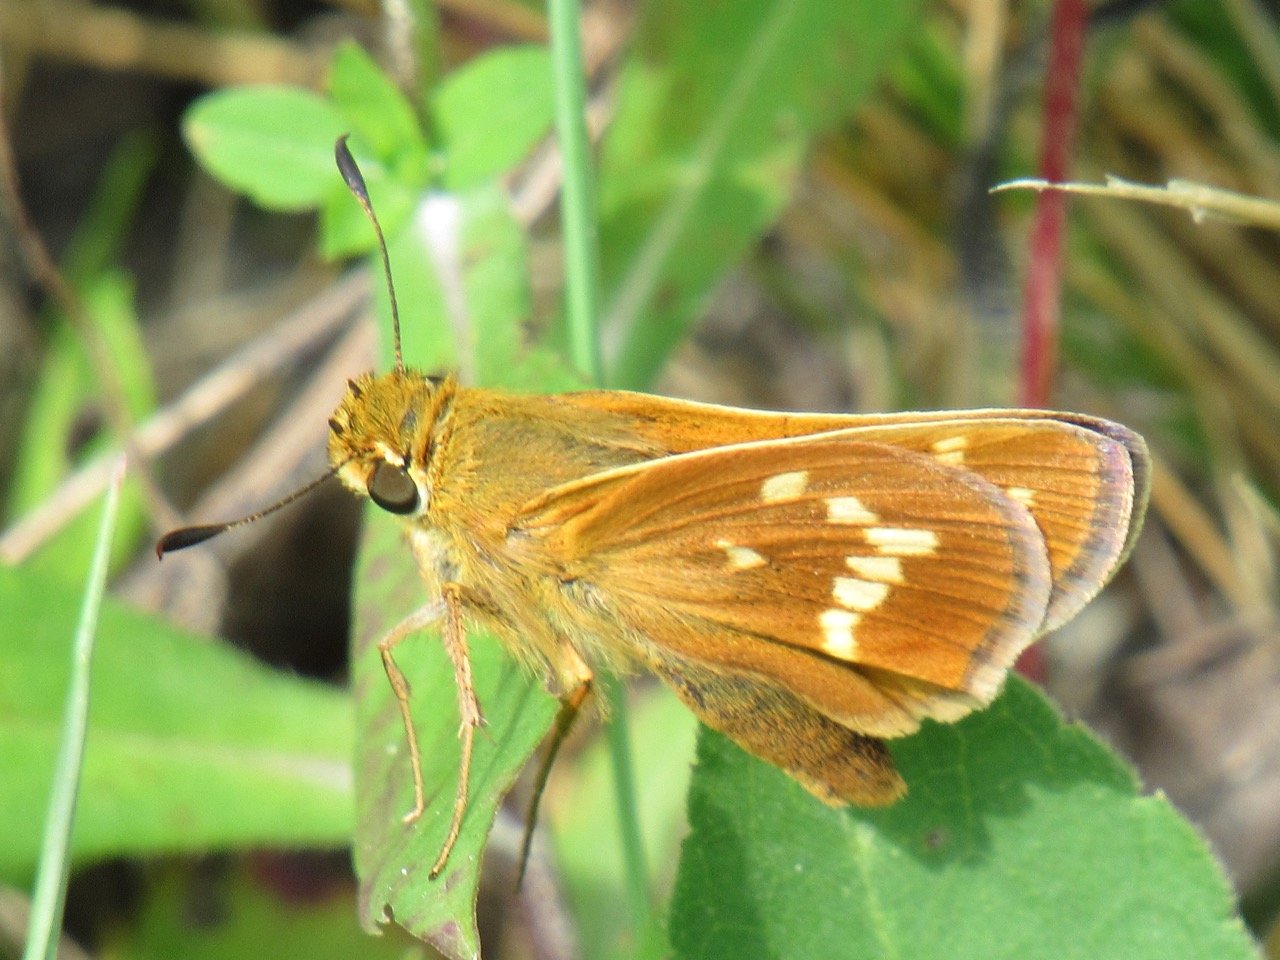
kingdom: Animalia
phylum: Arthropoda
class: Insecta
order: Lepidoptera
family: Hesperiidae
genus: Hesperia
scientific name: Hesperia leonardus
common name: Leonard's Skipper
